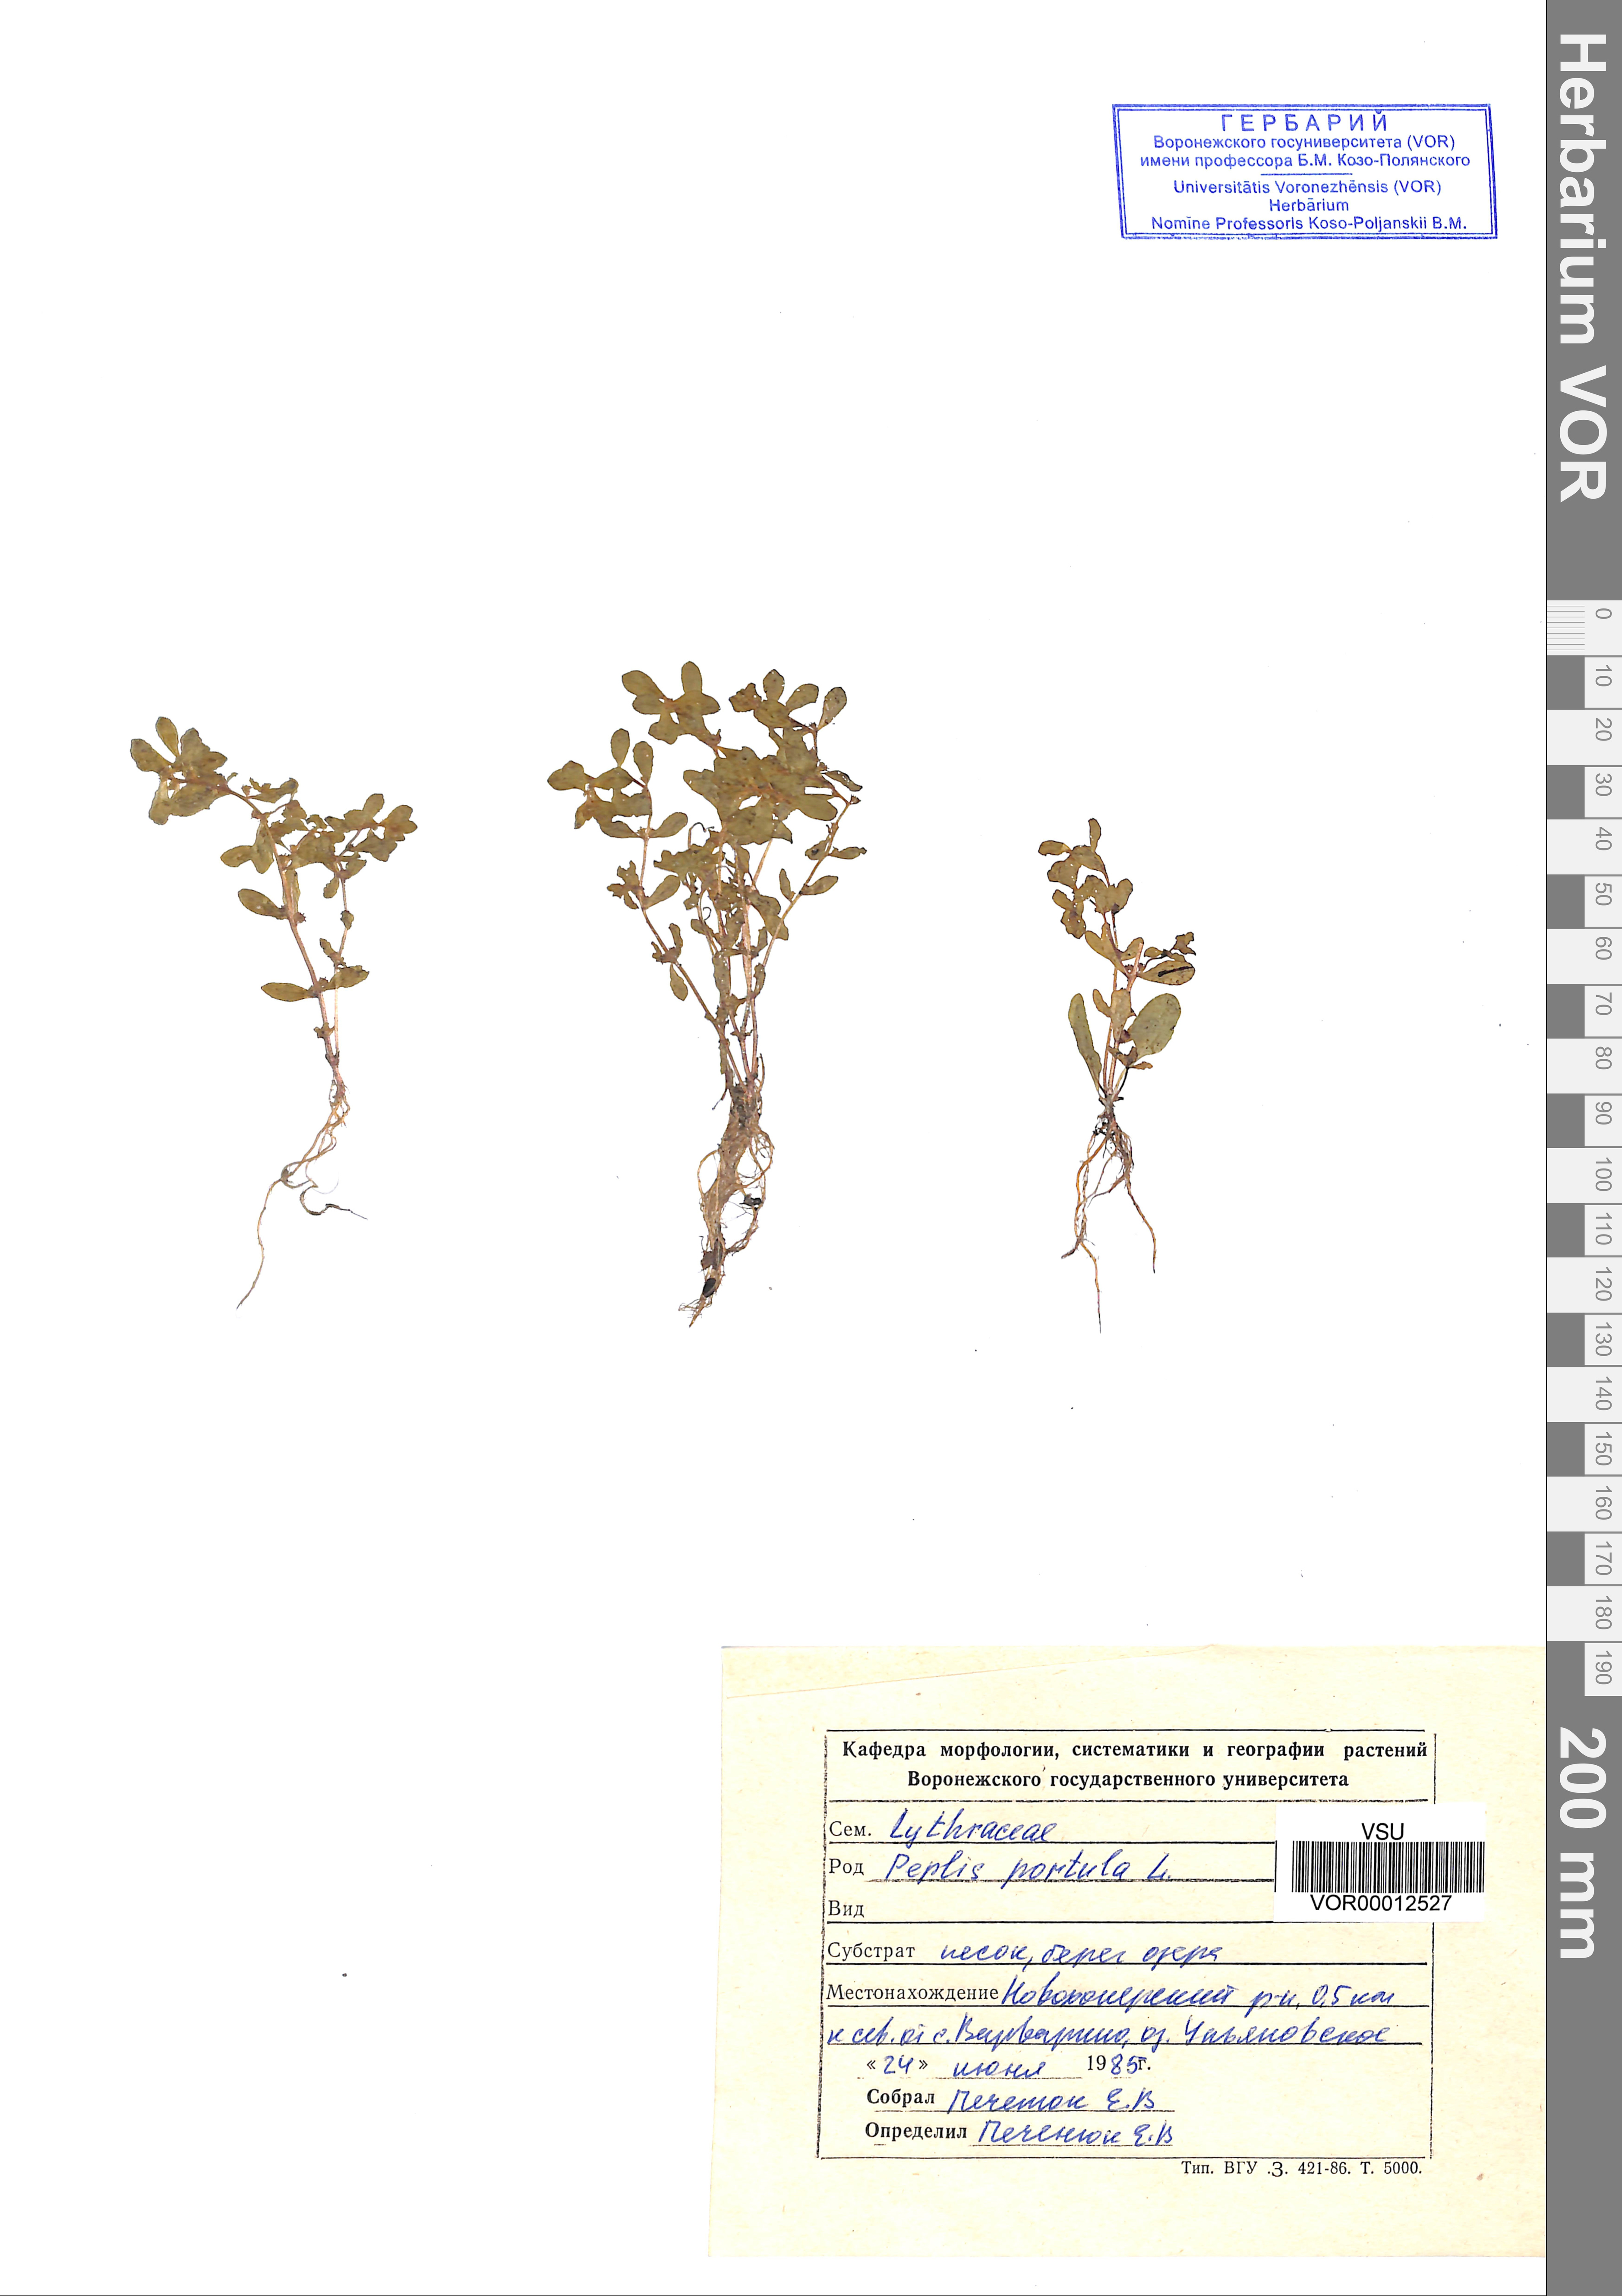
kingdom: Plantae
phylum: Tracheophyta
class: Magnoliopsida
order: Myrtales
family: Lythraceae
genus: Lythrum
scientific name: Lythrum portula
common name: Water purslane
